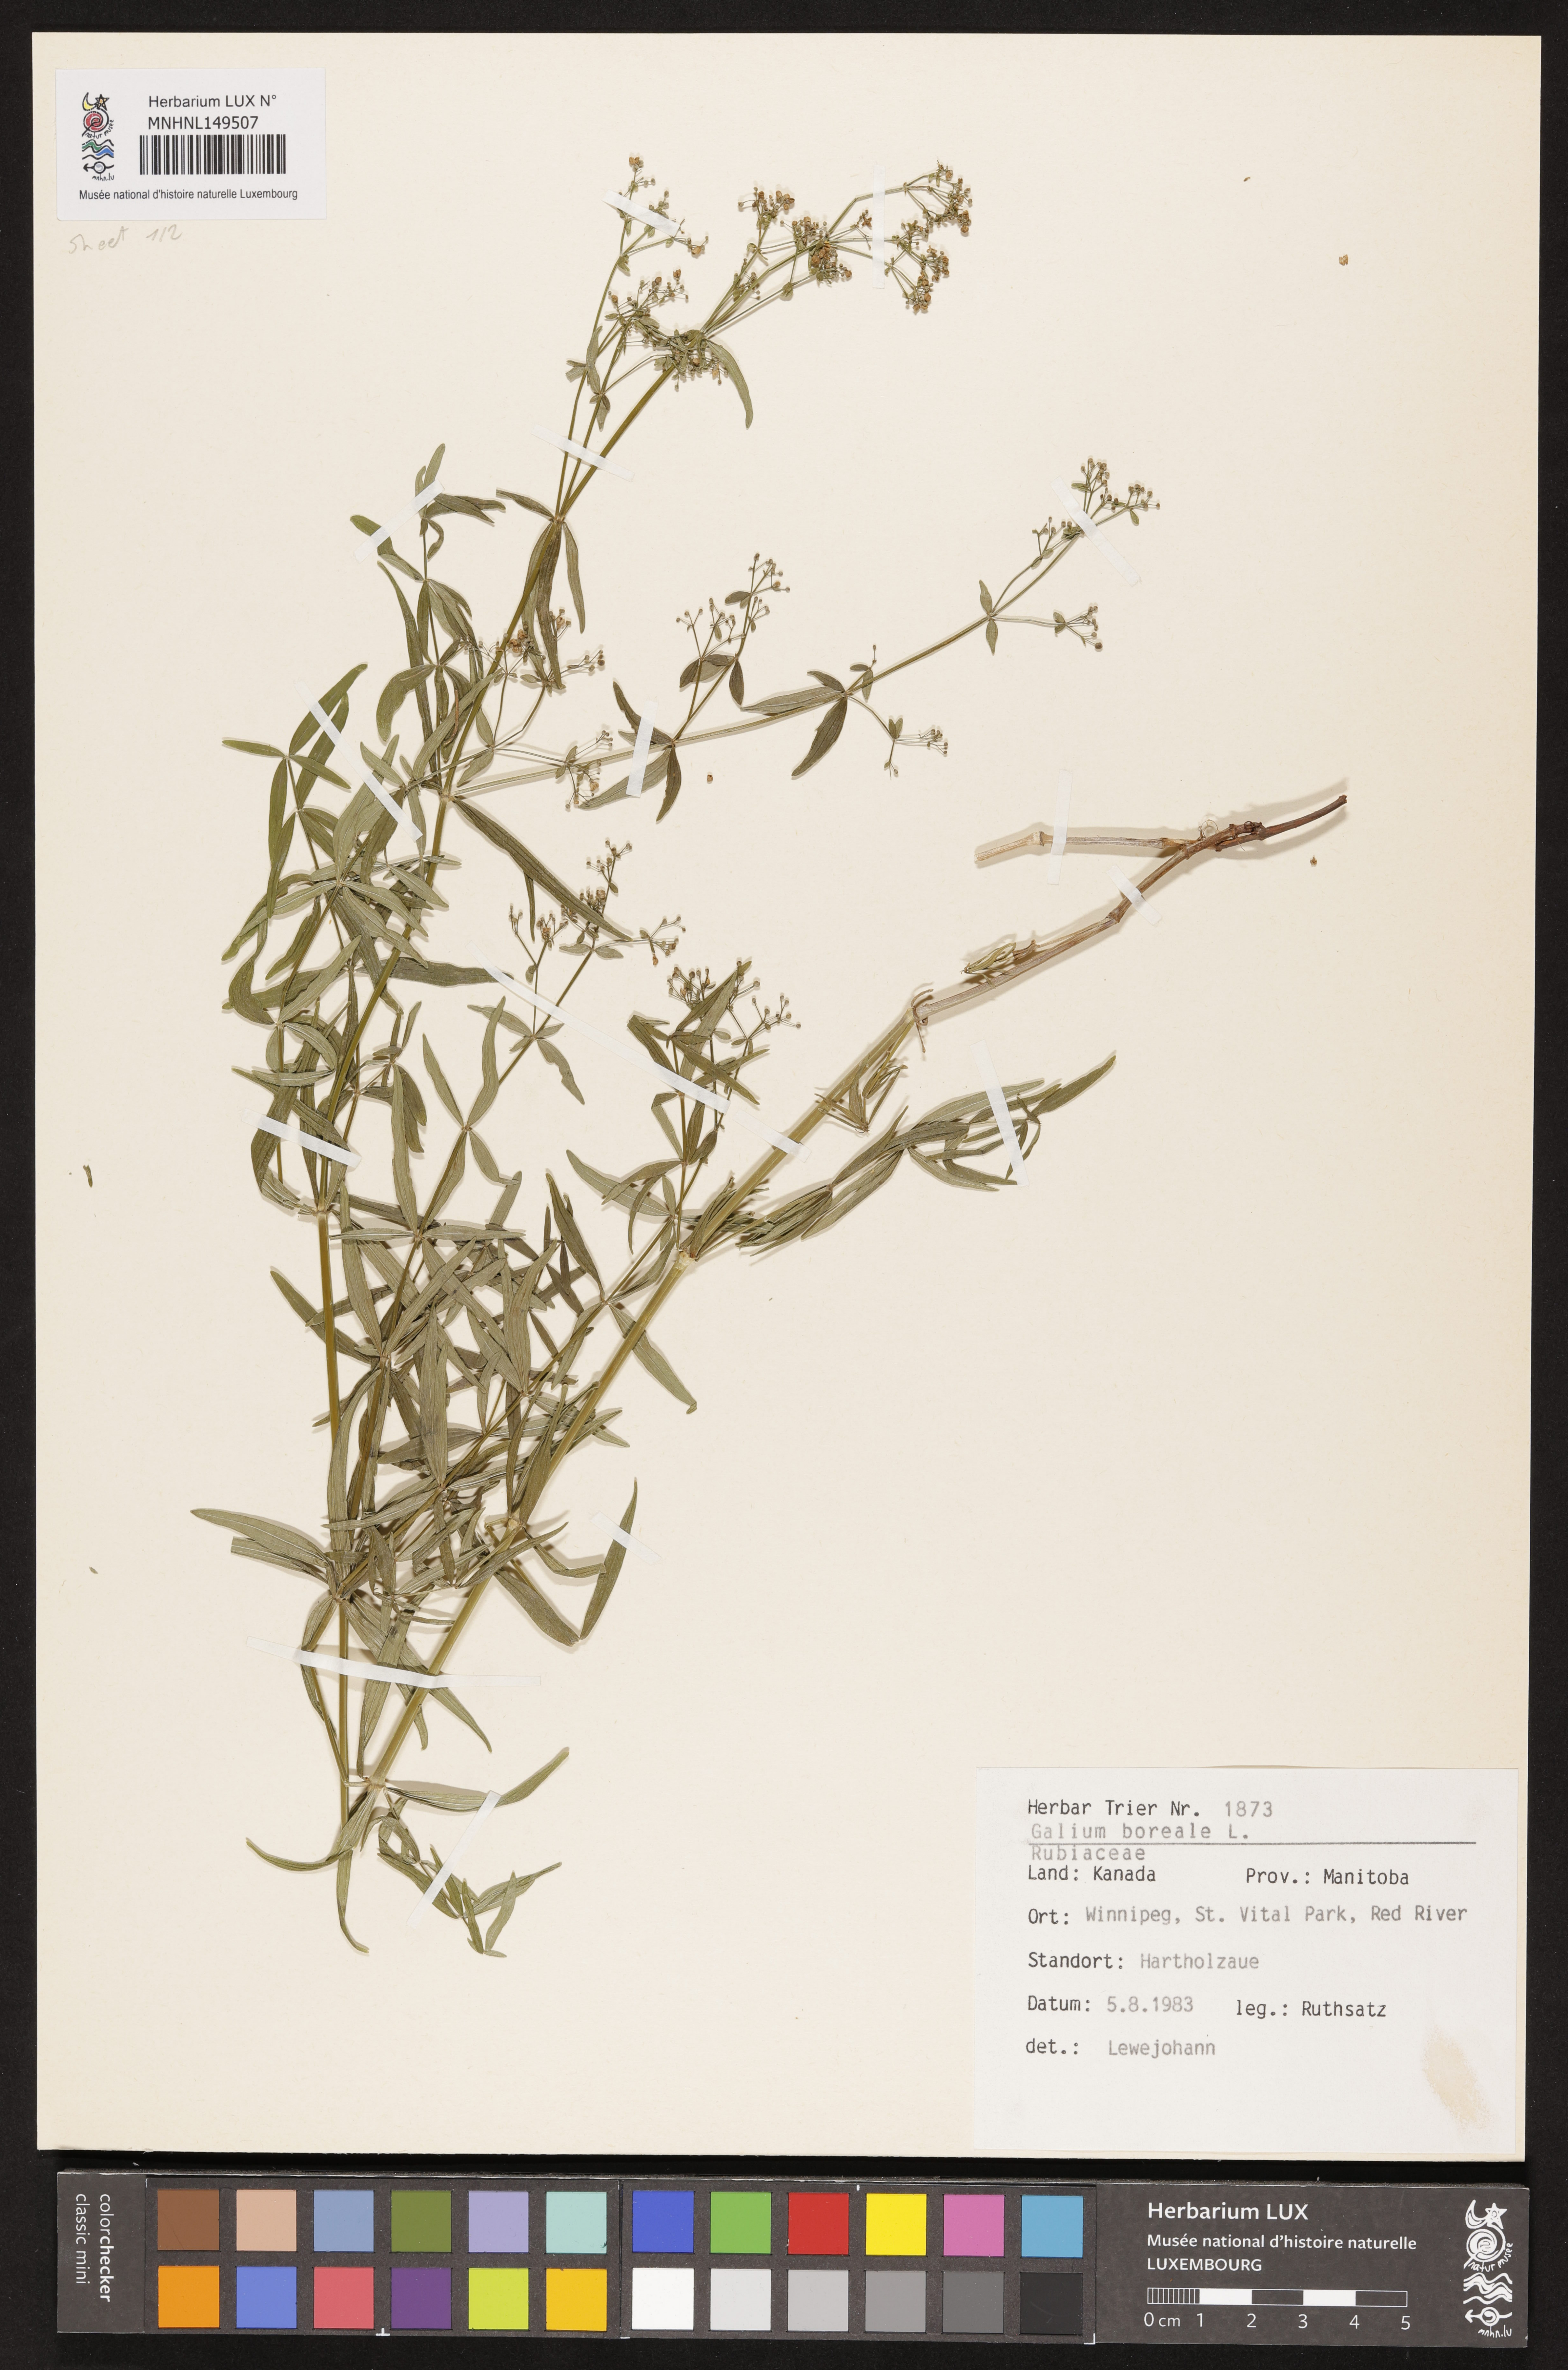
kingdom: Plantae
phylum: Tracheophyta
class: Magnoliopsida
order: Gentianales
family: Rubiaceae
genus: Galium
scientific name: Galium boreale
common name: Northern bedstraw
